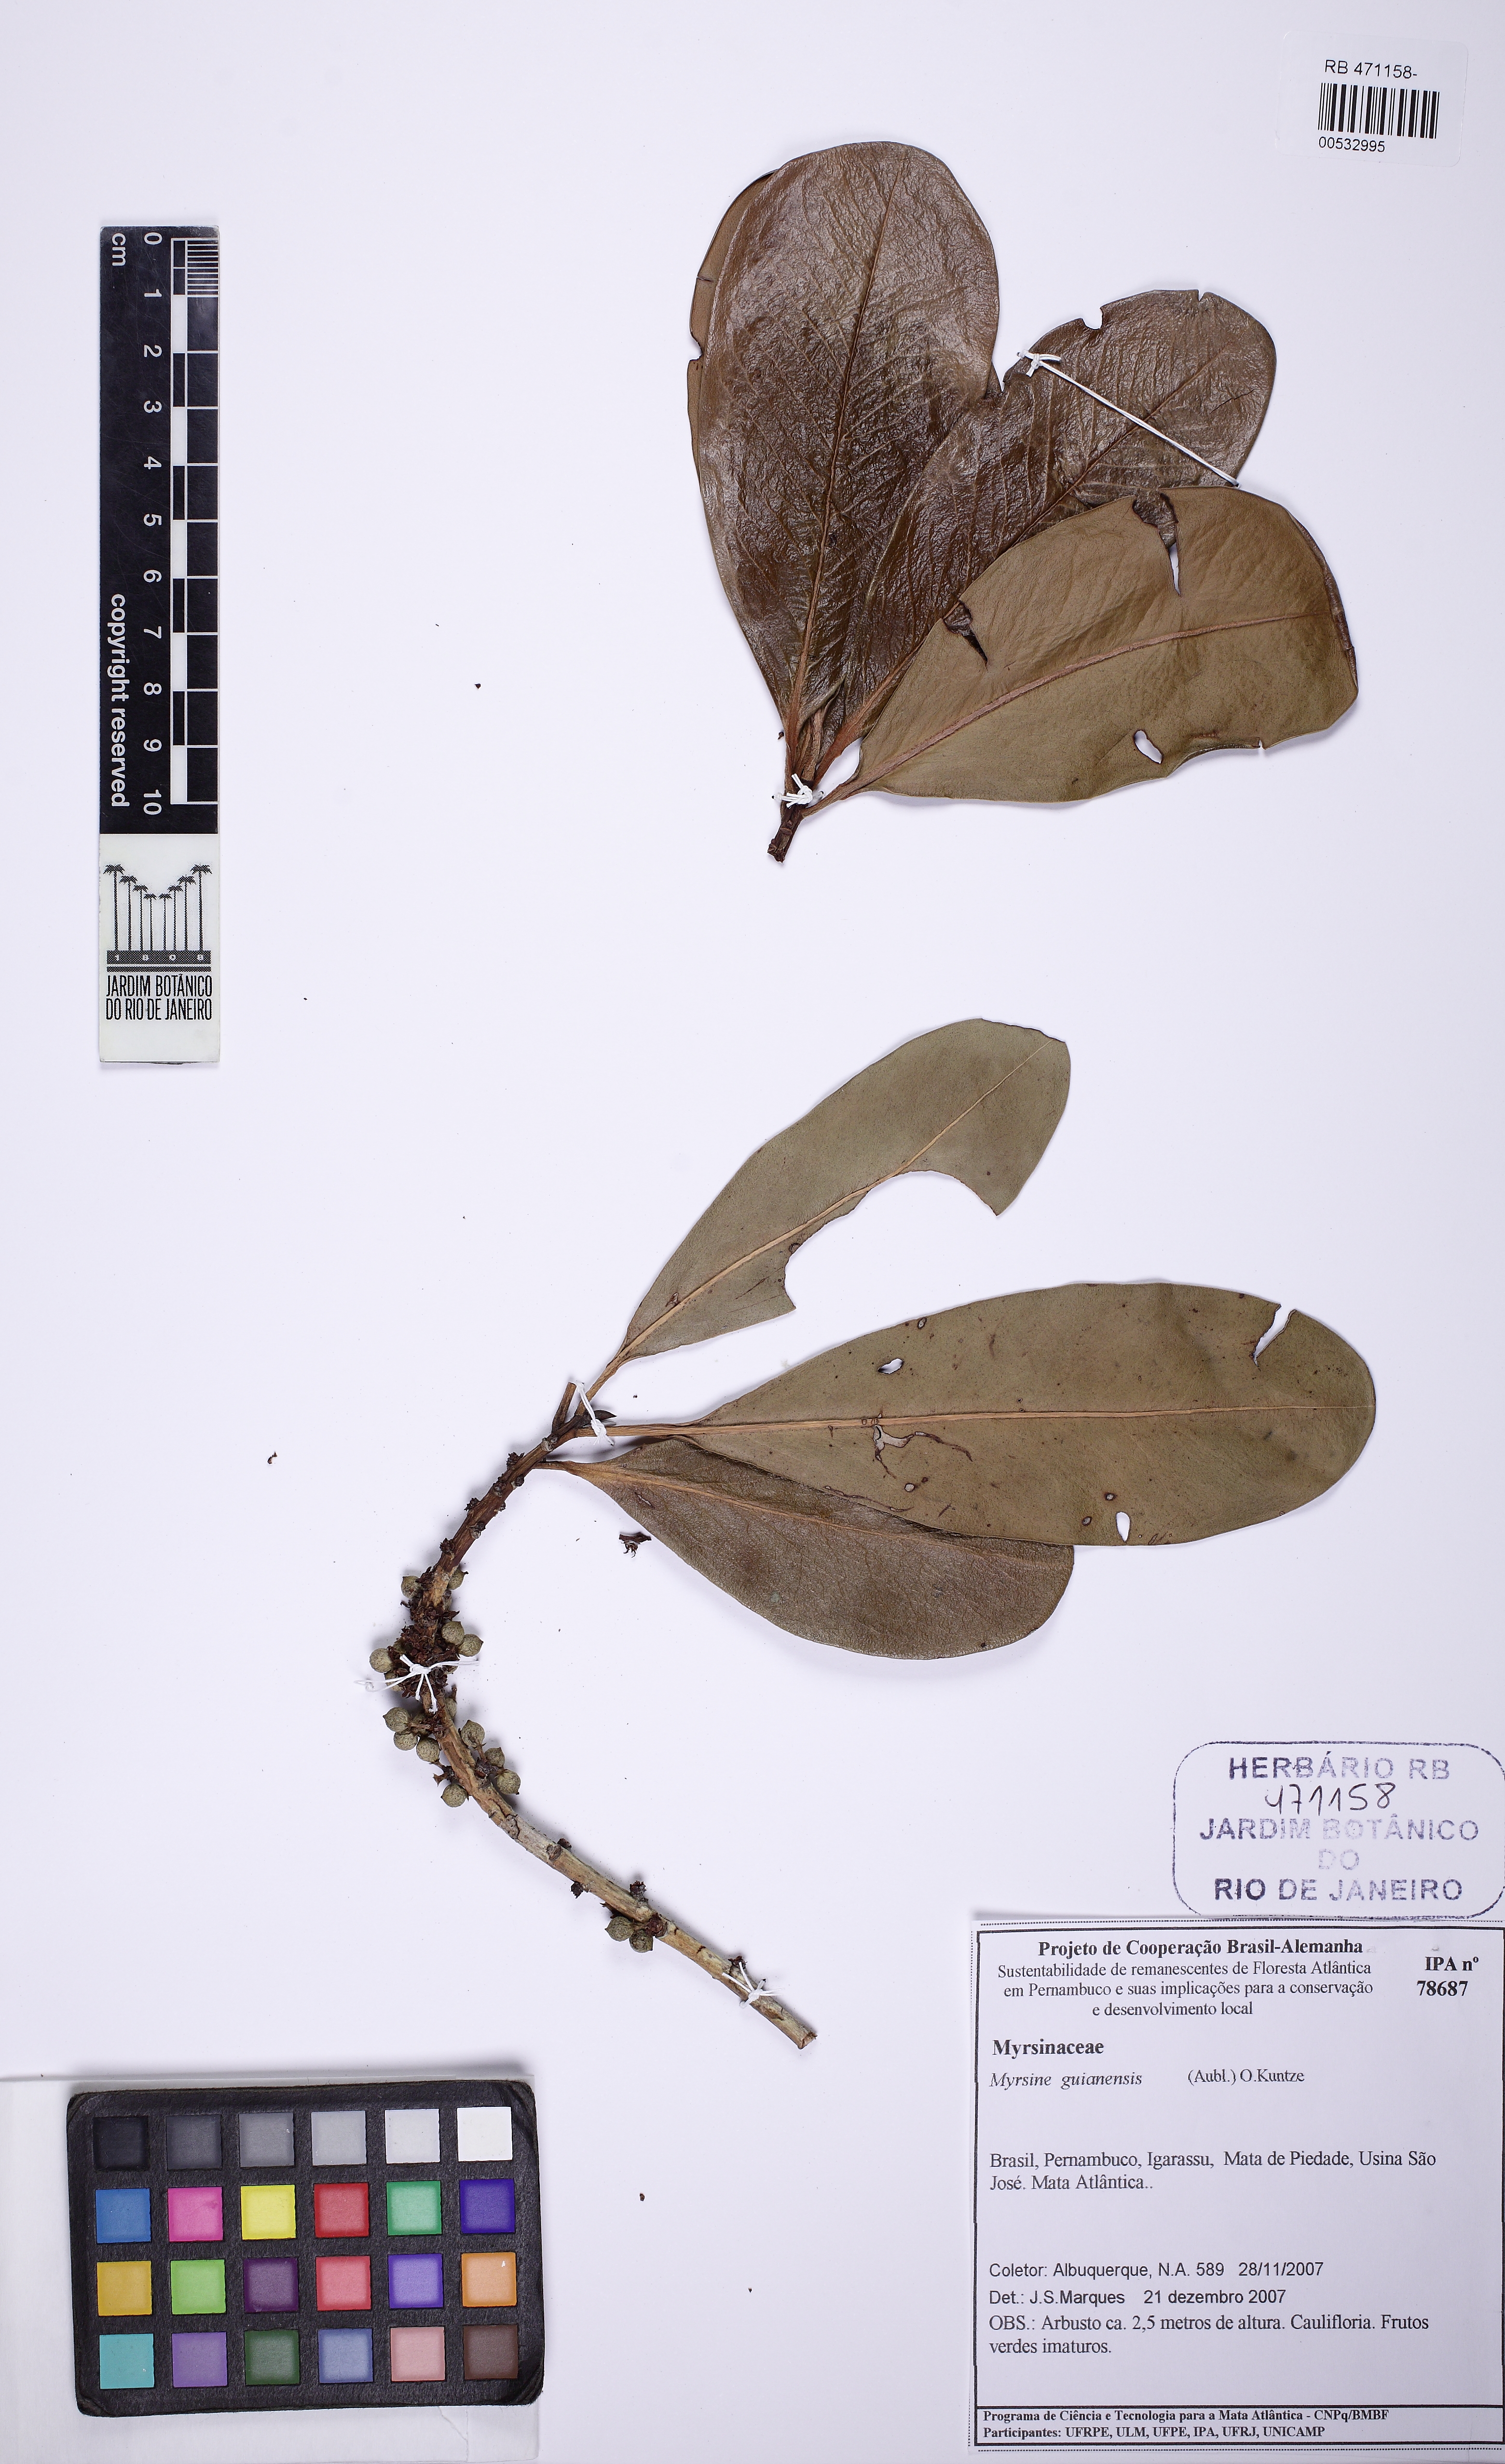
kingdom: Plantae
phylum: Tracheophyta
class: Magnoliopsida
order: Ericales
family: Primulaceae
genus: Myrsine
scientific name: Myrsine guianensis
